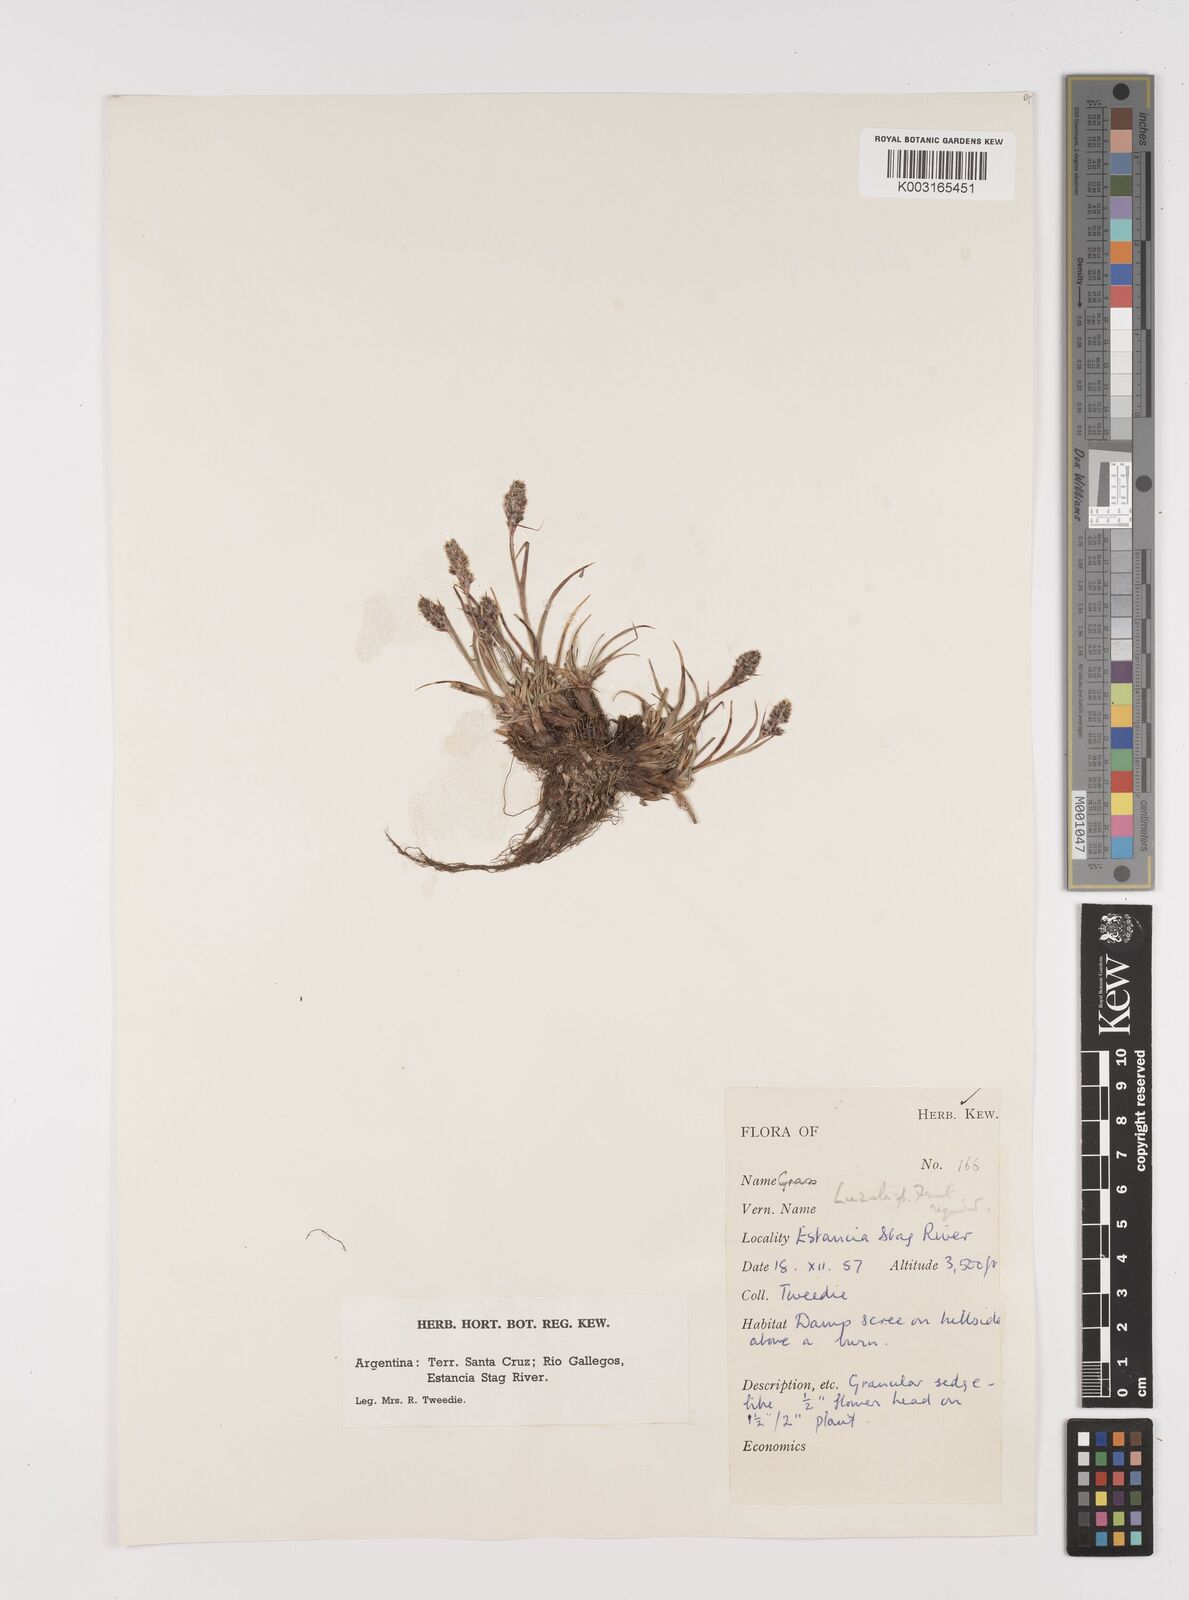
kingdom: Plantae
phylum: Tracheophyta
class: Liliopsida
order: Poales
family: Juncaceae
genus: Luzula
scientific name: Luzula
